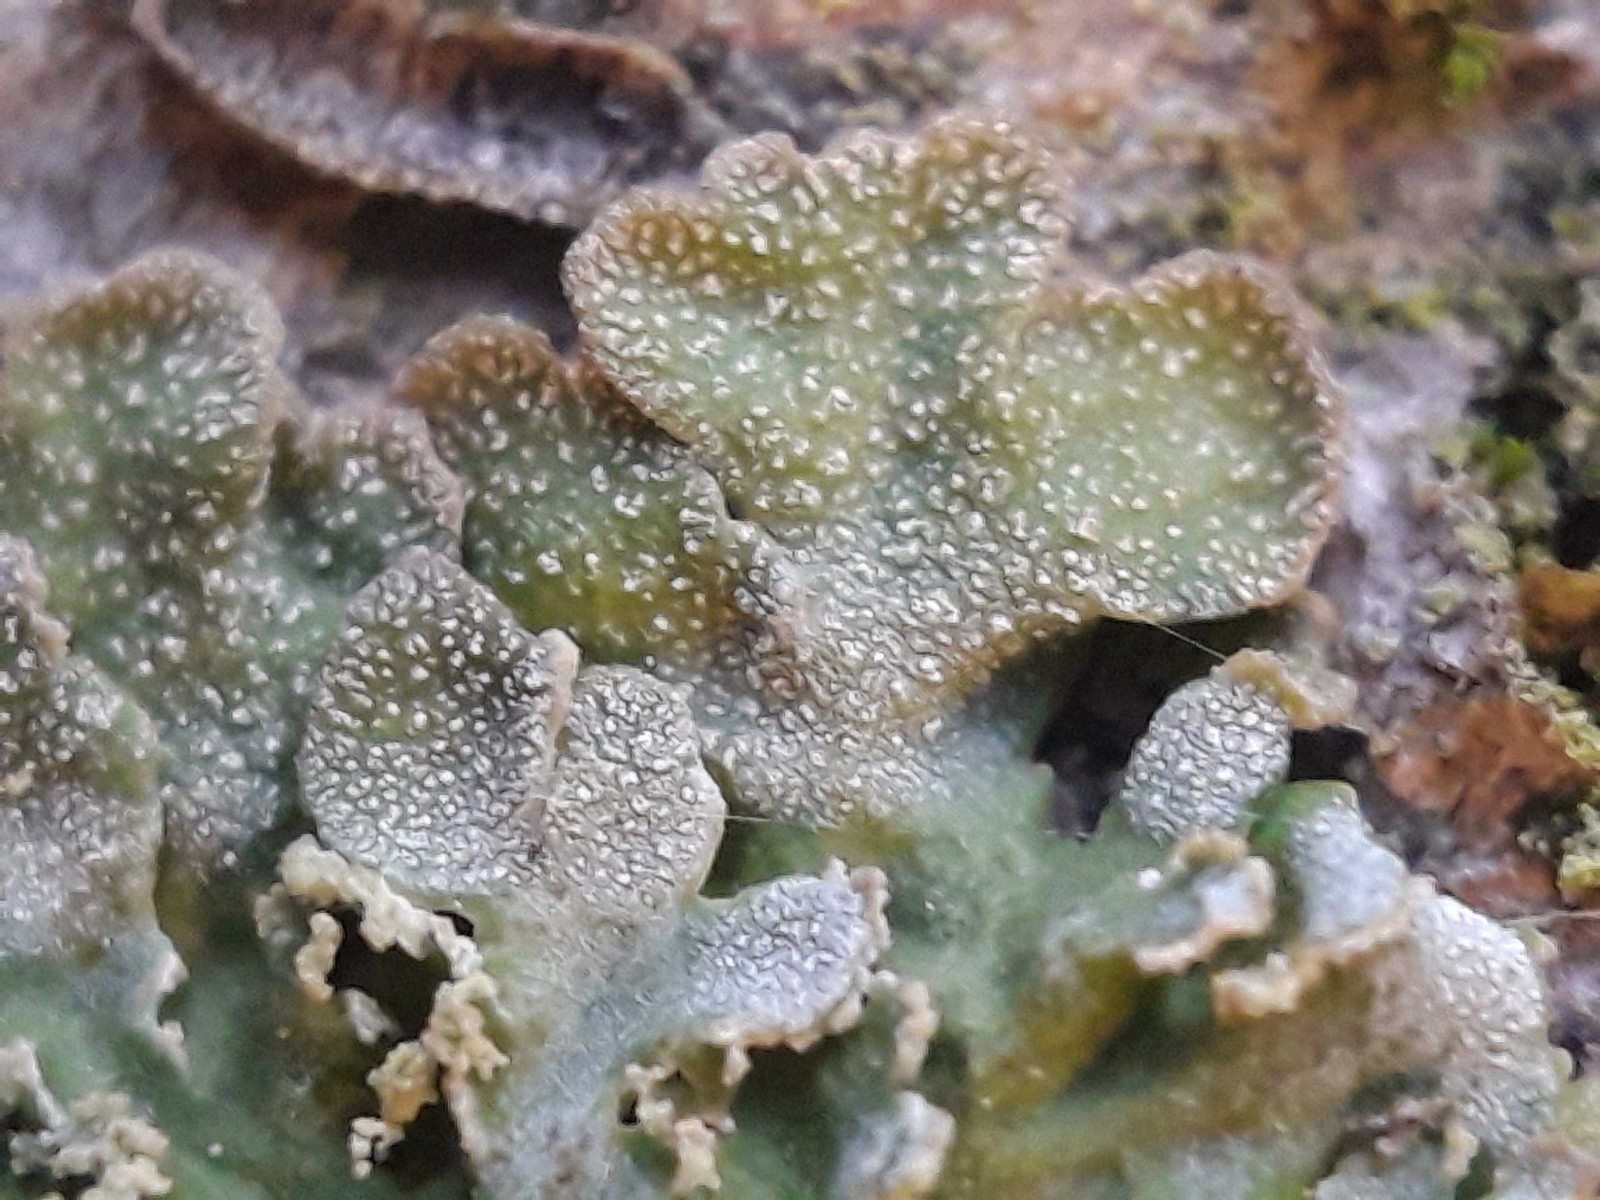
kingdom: Fungi
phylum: Ascomycota
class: Lecanoromycetes
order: Caliciales
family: Physciaceae
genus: Poeltonia
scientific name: Poeltonia grisea
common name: hvidgrå dugrosetlav
